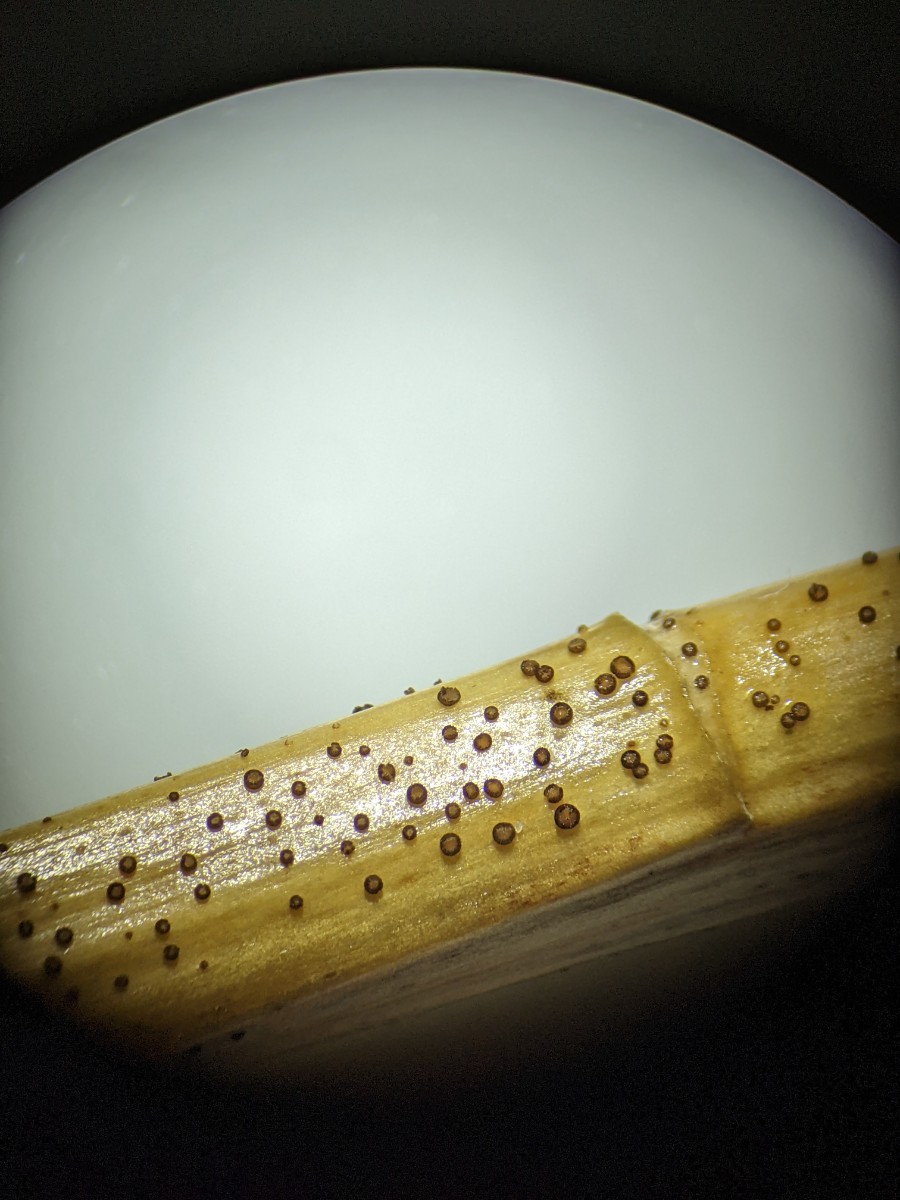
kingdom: Fungi
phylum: Ascomycota
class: Leotiomycetes
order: Helotiales
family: Solenopeziaceae
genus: Lasiobelonium
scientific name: Lasiobelonium nidulus
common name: rede-frynseskive
